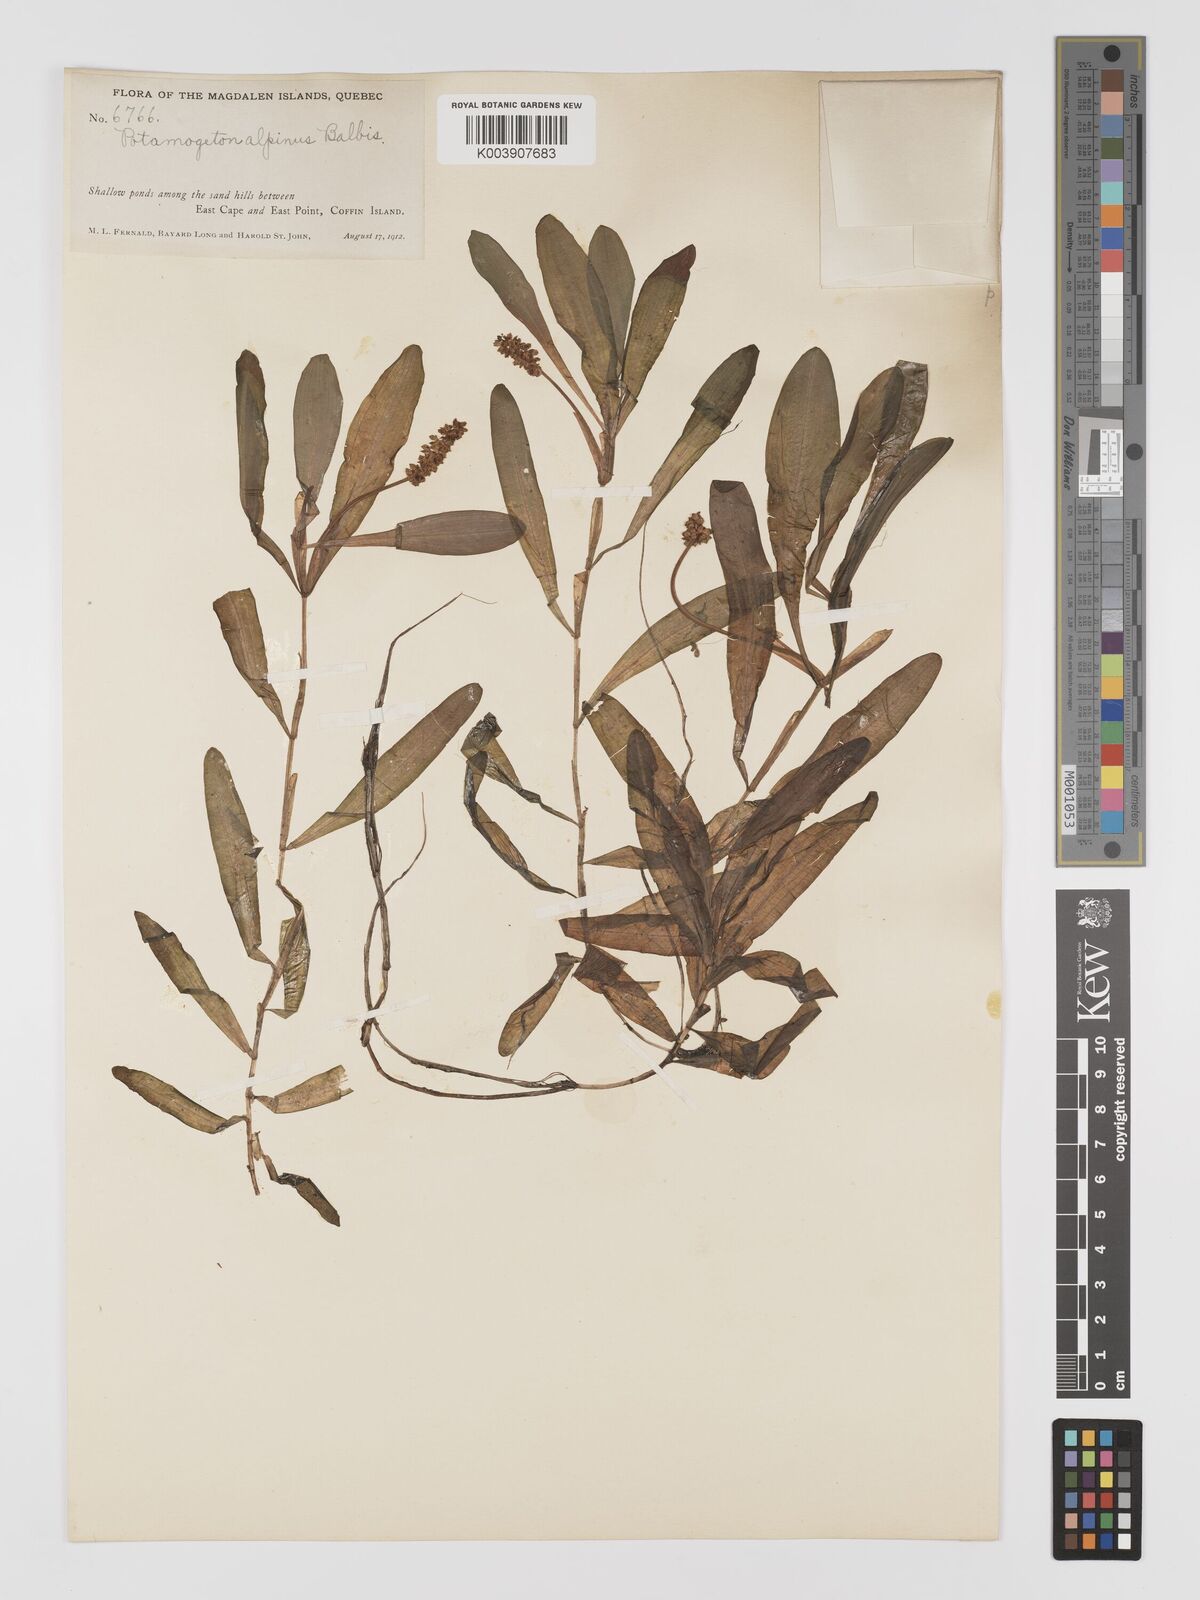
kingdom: Plantae
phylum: Tracheophyta
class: Liliopsida
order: Alismatales
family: Potamogetonaceae
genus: Potamogeton
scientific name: Potamogeton alpinus
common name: Red pondweed
